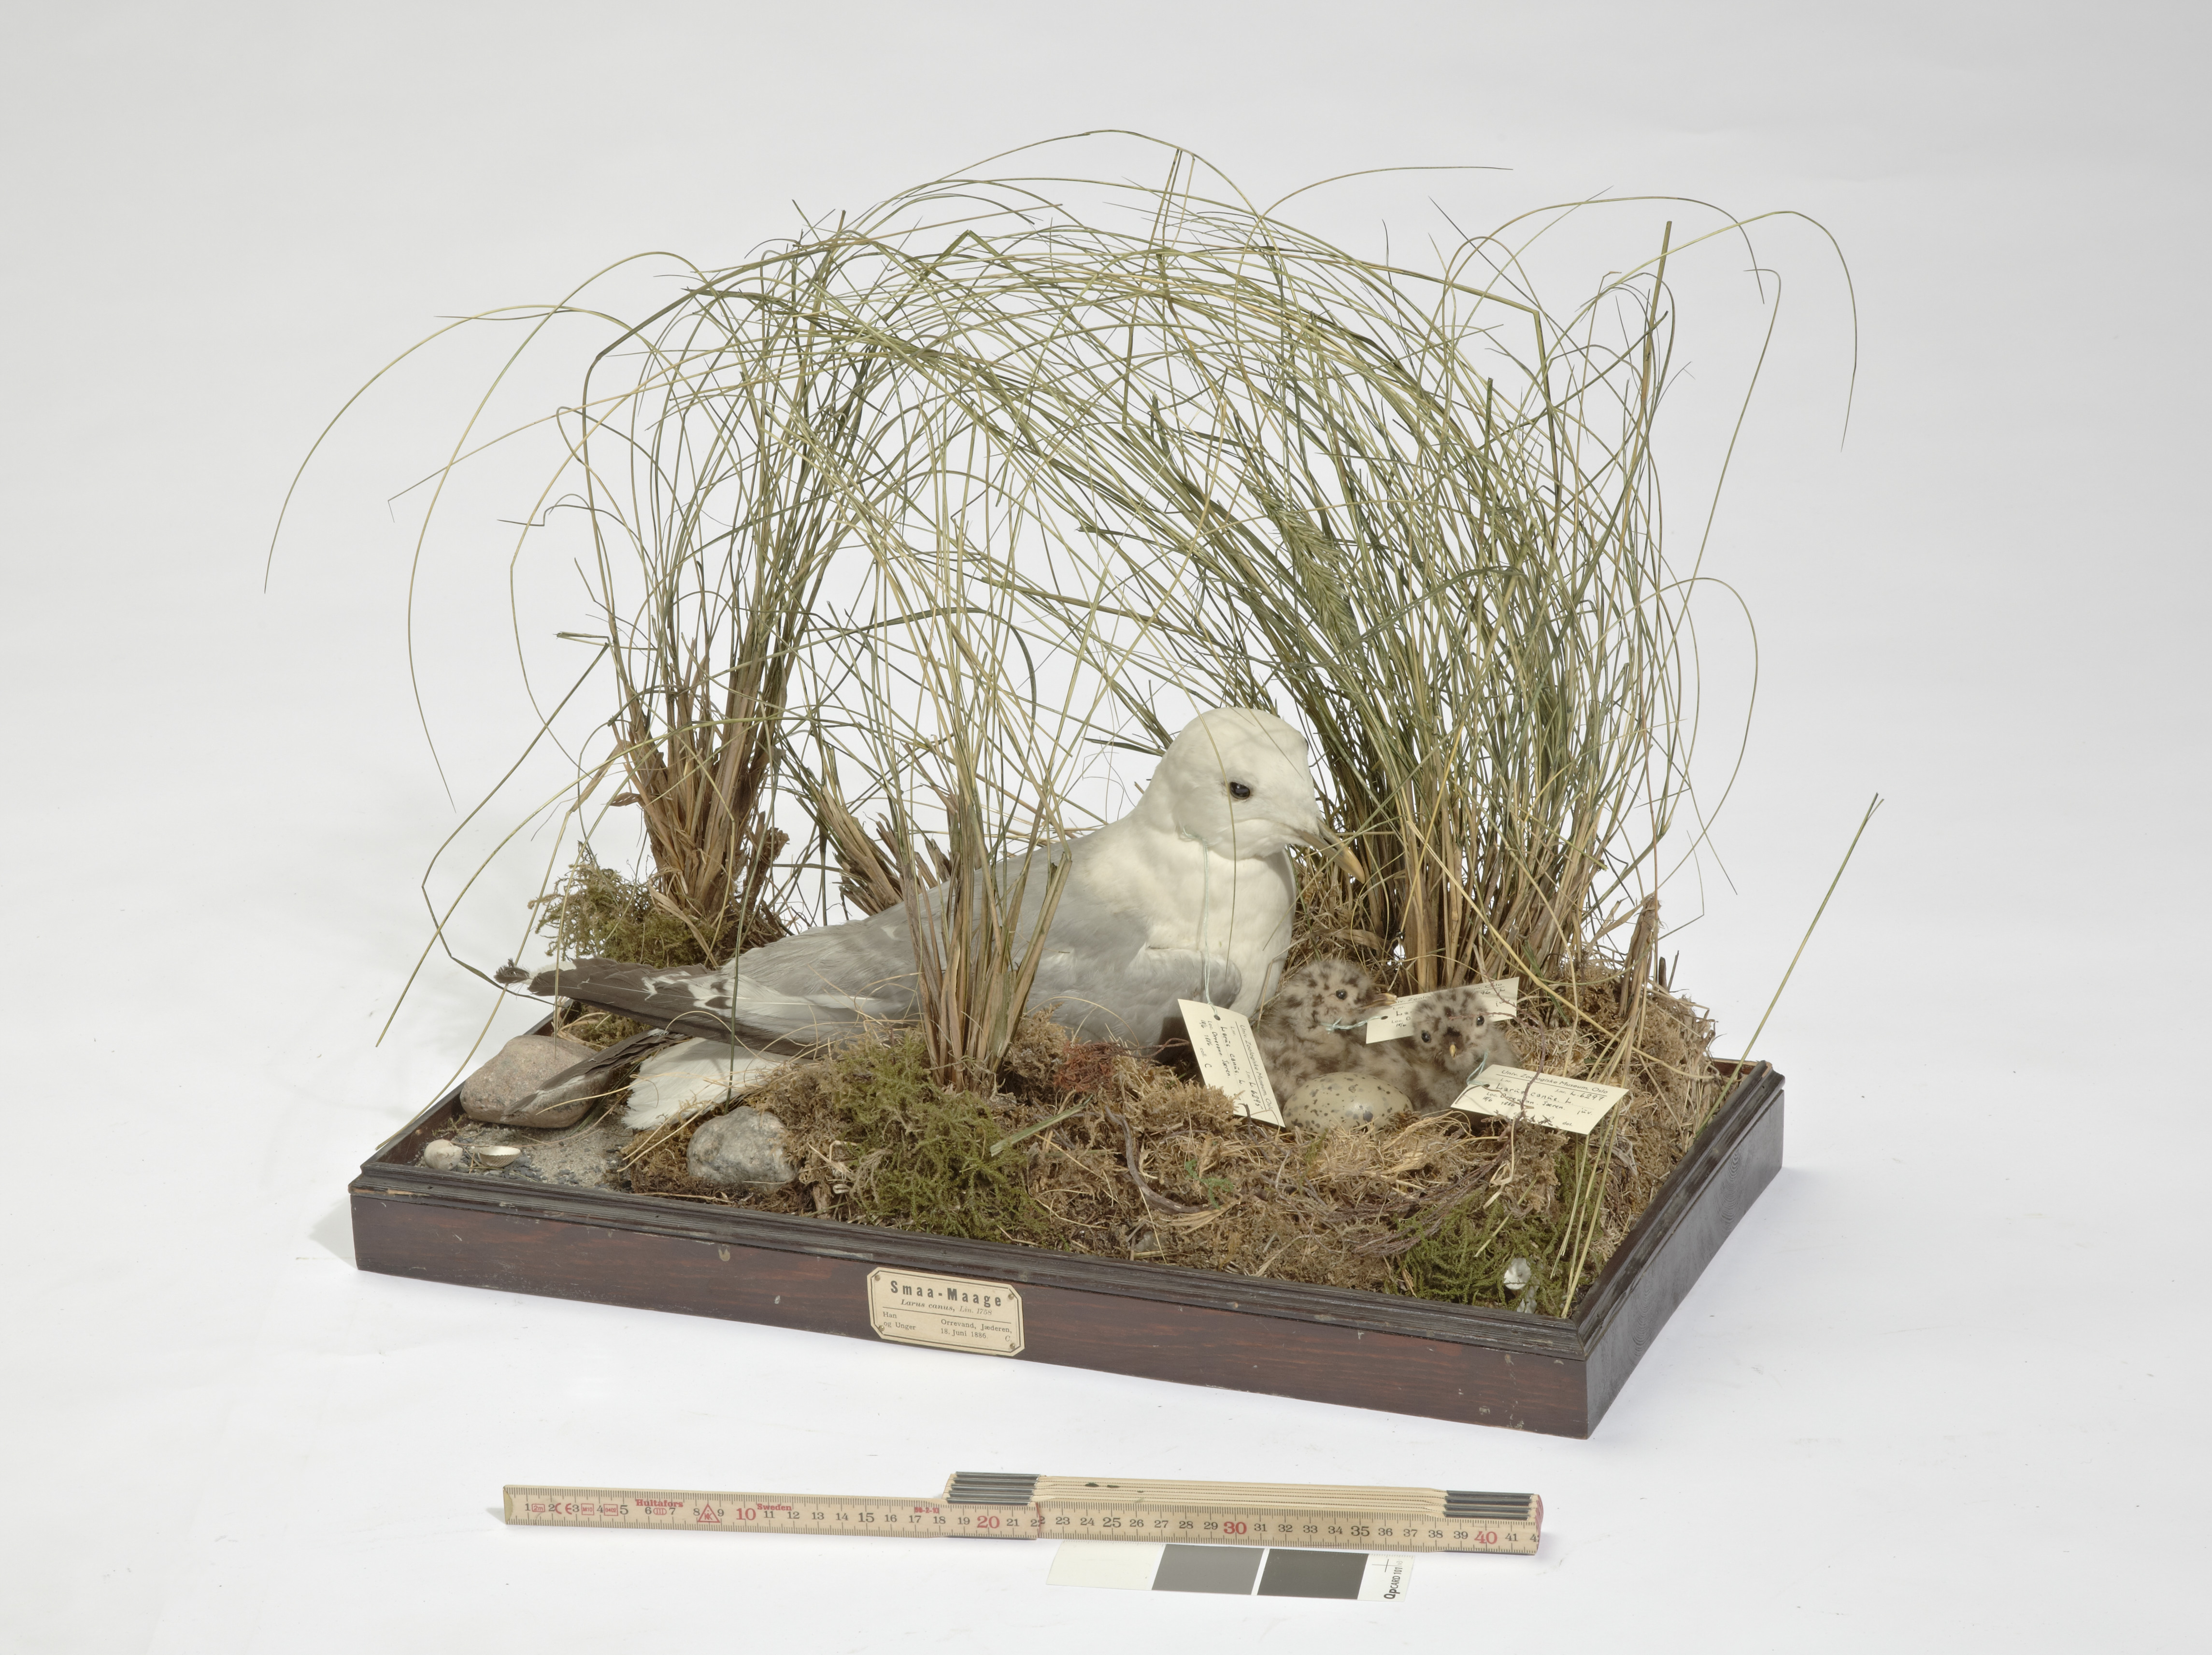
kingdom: Animalia
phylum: Chordata
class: Aves
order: Charadriiformes
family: Laridae
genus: Larus
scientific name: Larus canus
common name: Mew gull
